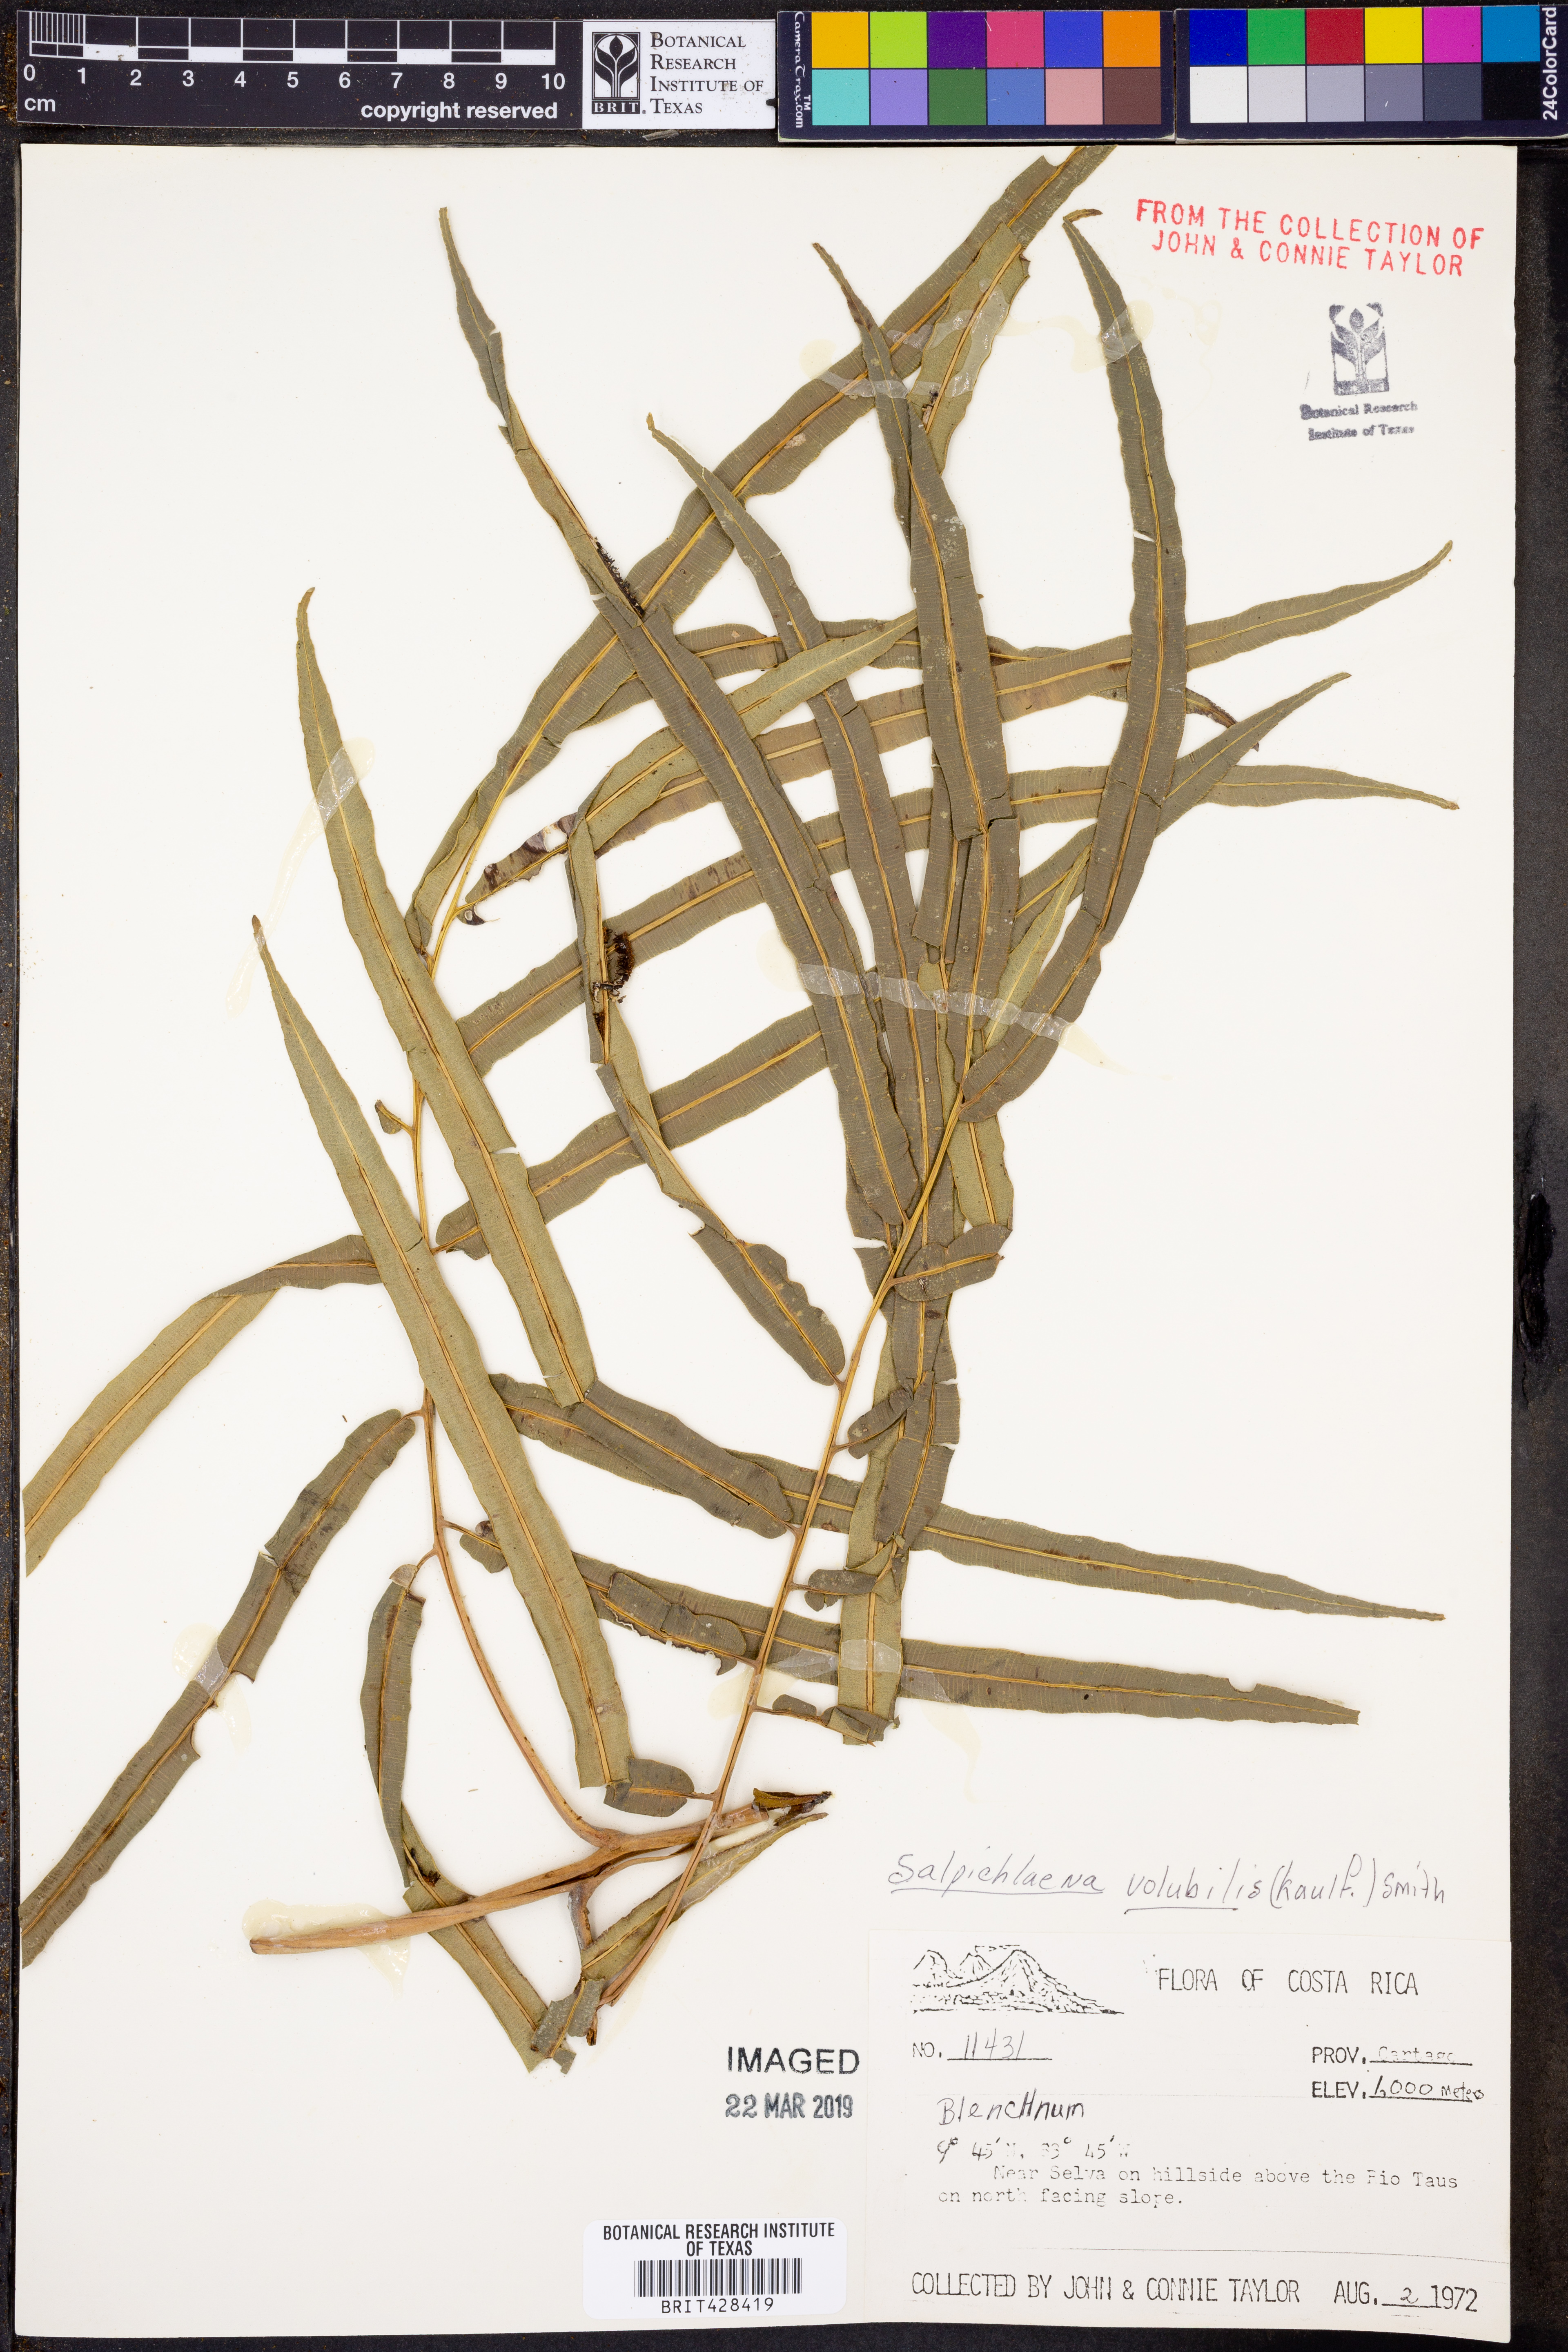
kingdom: Plantae
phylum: Tracheophyta
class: Polypodiopsida
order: Polypodiales
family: Blechnaceae
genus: Salpichlaena
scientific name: Salpichlaena volubilis
